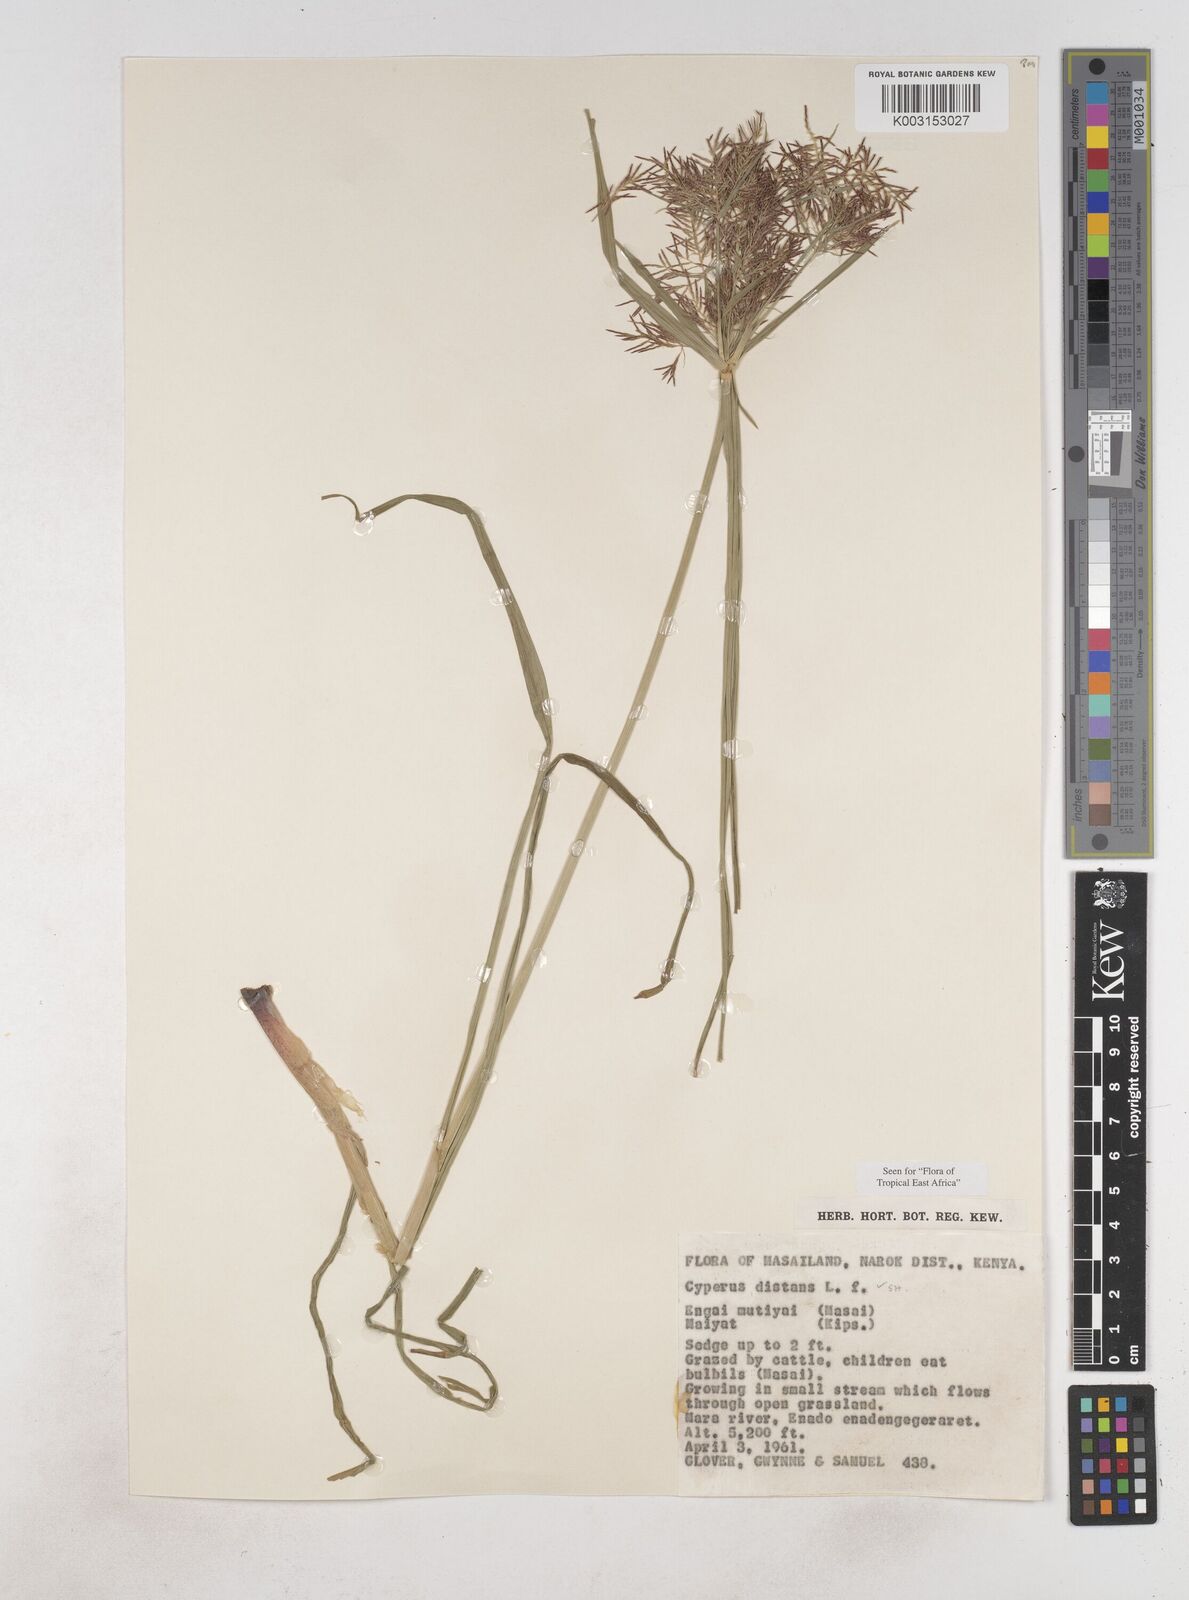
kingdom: Plantae
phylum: Tracheophyta
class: Liliopsida
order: Poales
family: Cyperaceae
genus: Cyperus
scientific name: Cyperus distans
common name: Slender cyperus
